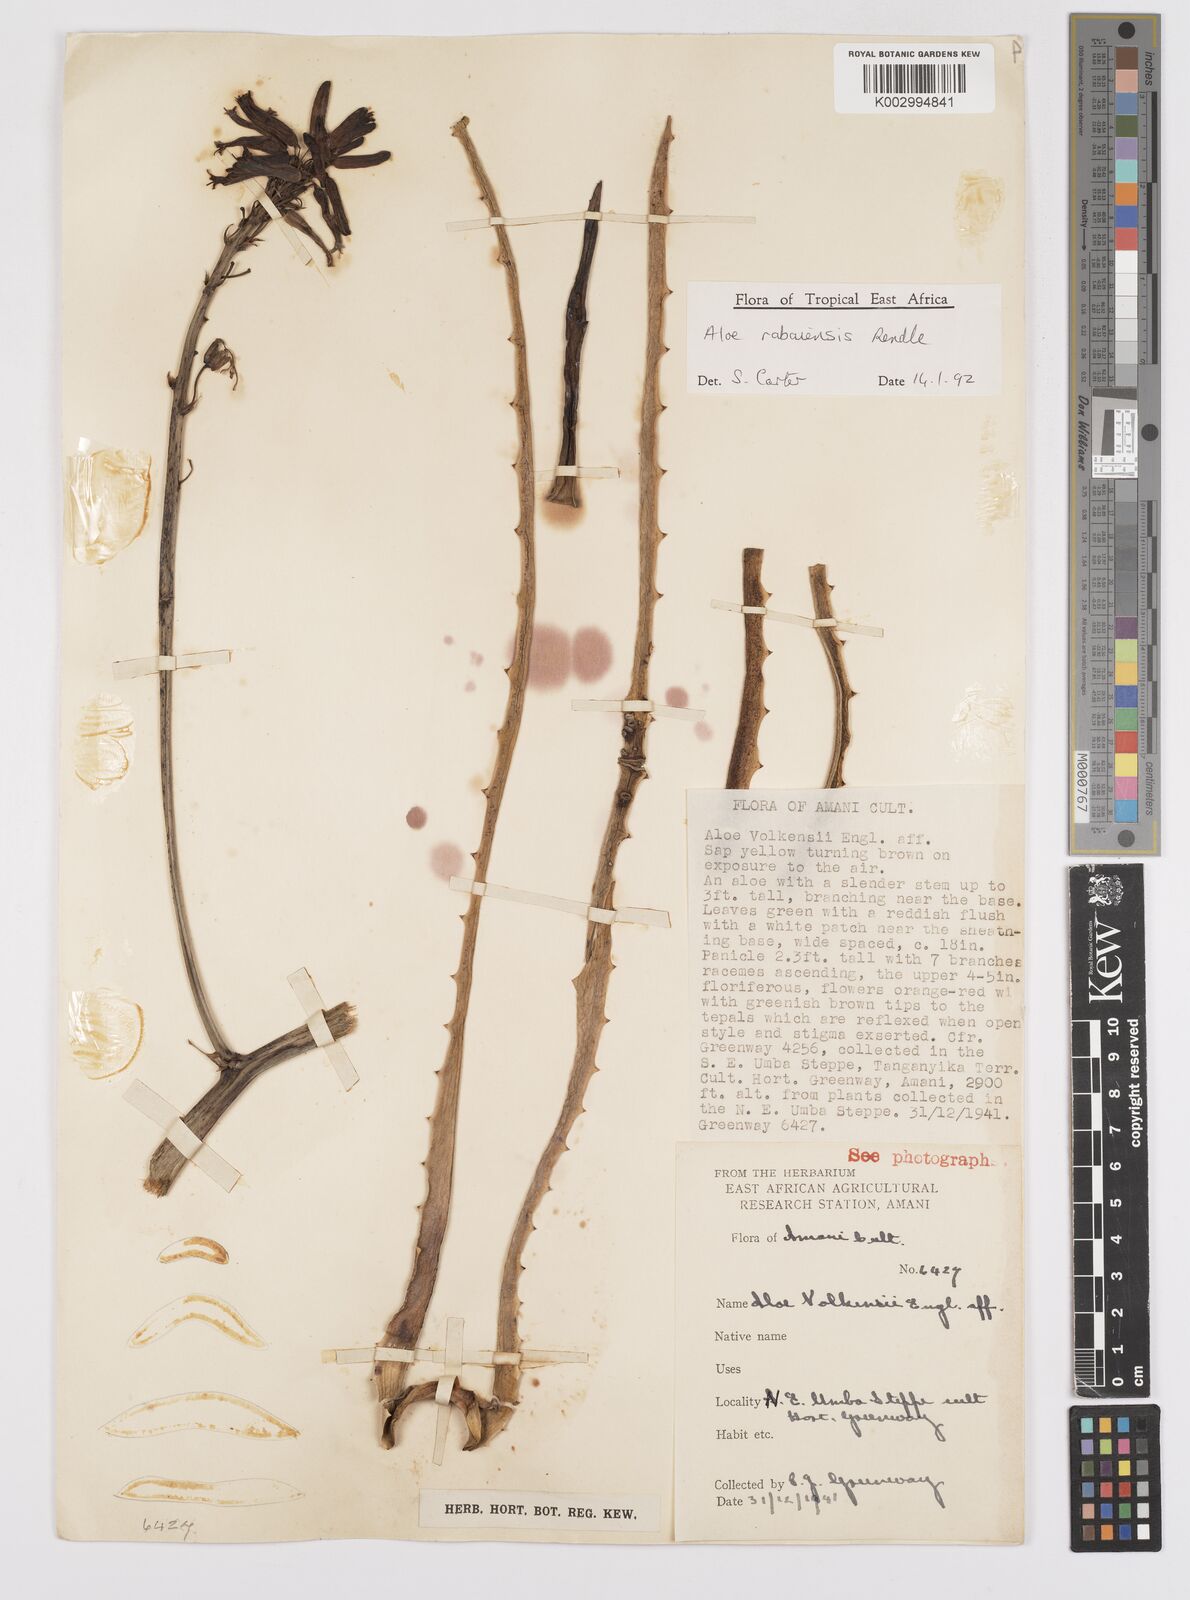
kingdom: Plantae
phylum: Tracheophyta
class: Liliopsida
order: Asparagales
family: Asphodelaceae
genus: Aloe
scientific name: Aloe rabaiensis
